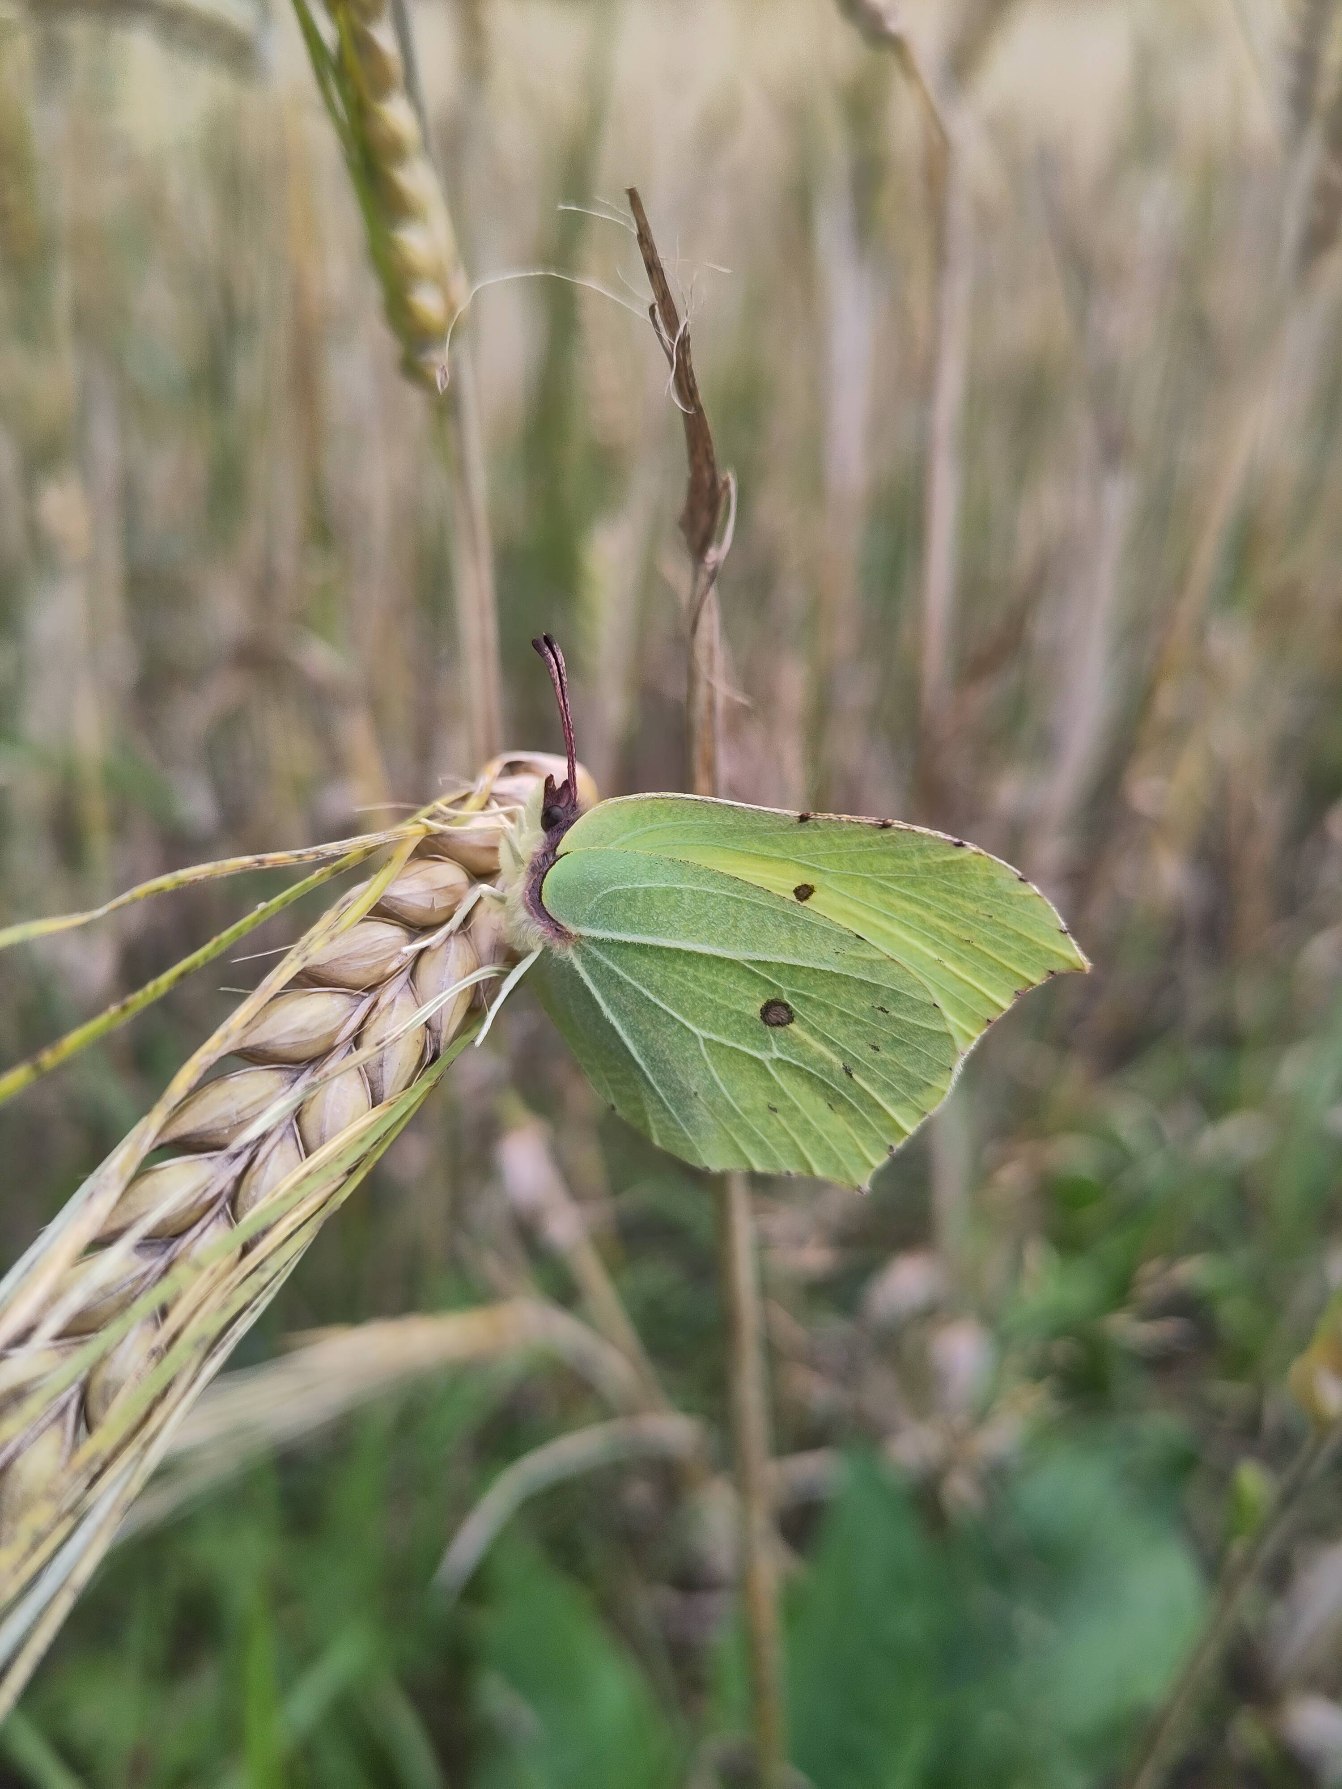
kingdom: Animalia
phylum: Arthropoda
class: Insecta
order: Lepidoptera
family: Pieridae
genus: Gonepteryx
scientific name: Gonepteryx rhamni
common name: Citronsommerfugl
